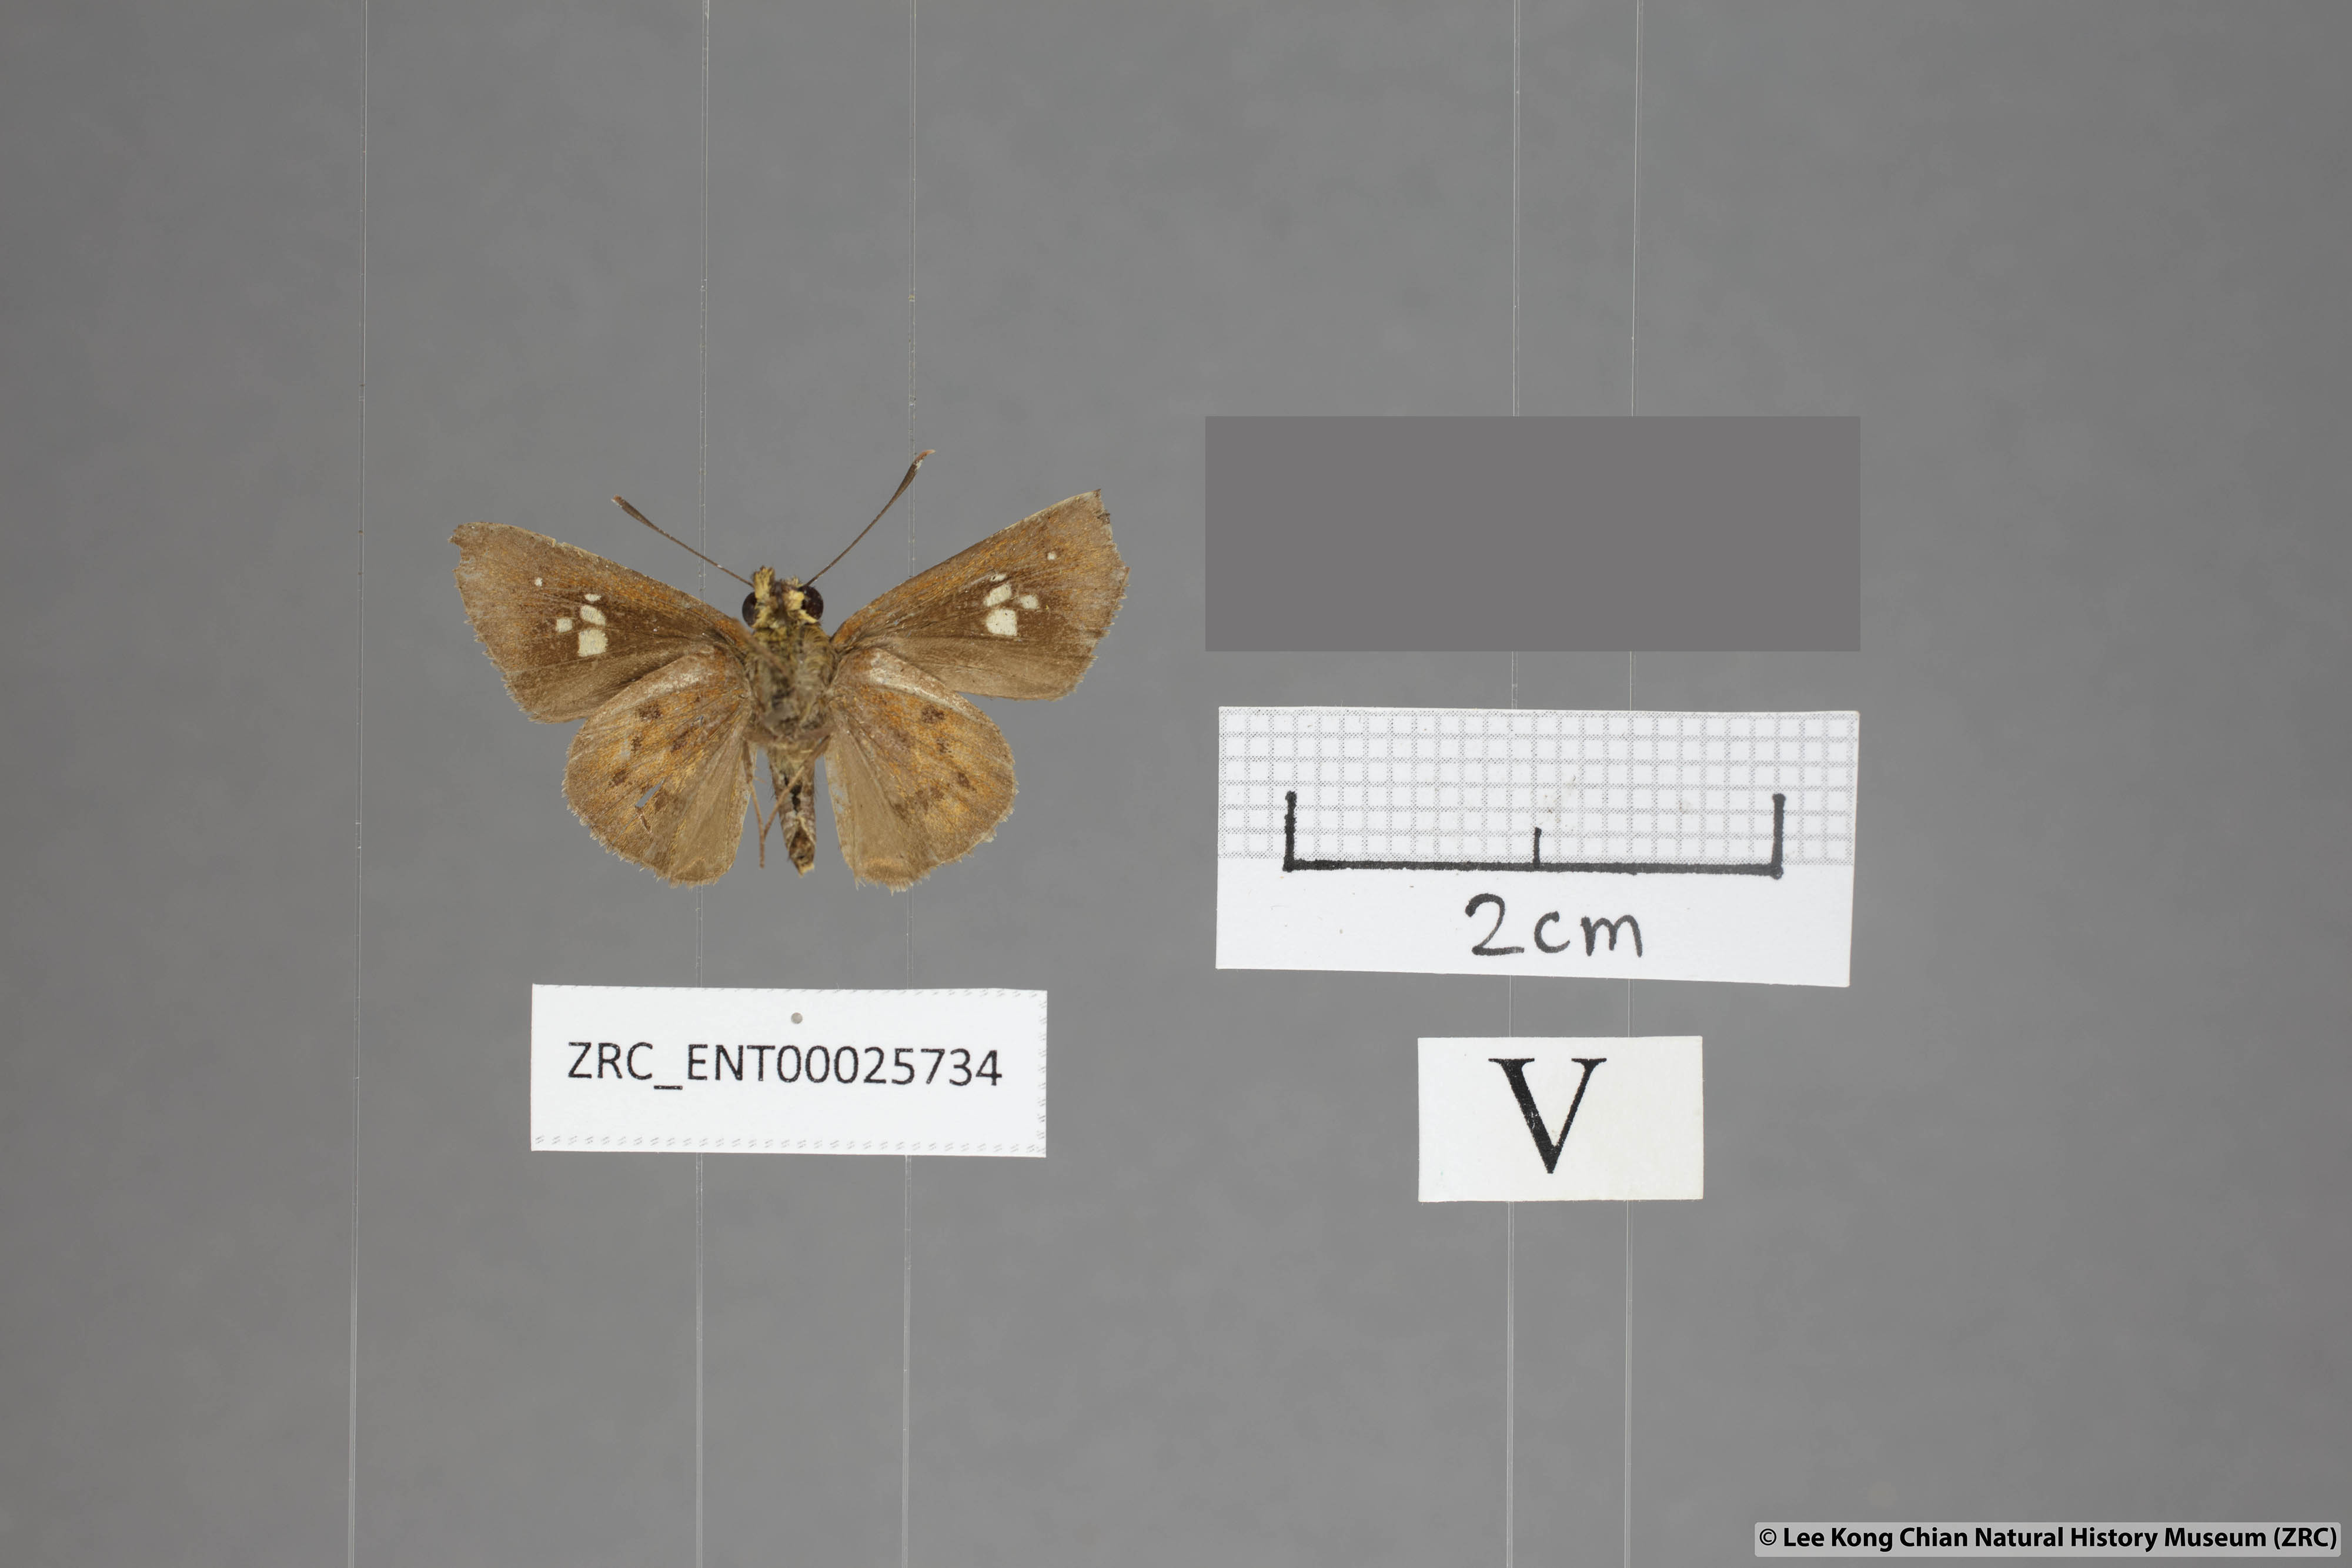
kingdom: Animalia
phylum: Arthropoda
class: Insecta
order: Lepidoptera
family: Hesperiidae
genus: Zographetus
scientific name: Zographetus ogygia
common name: Purple-spotted flitter
